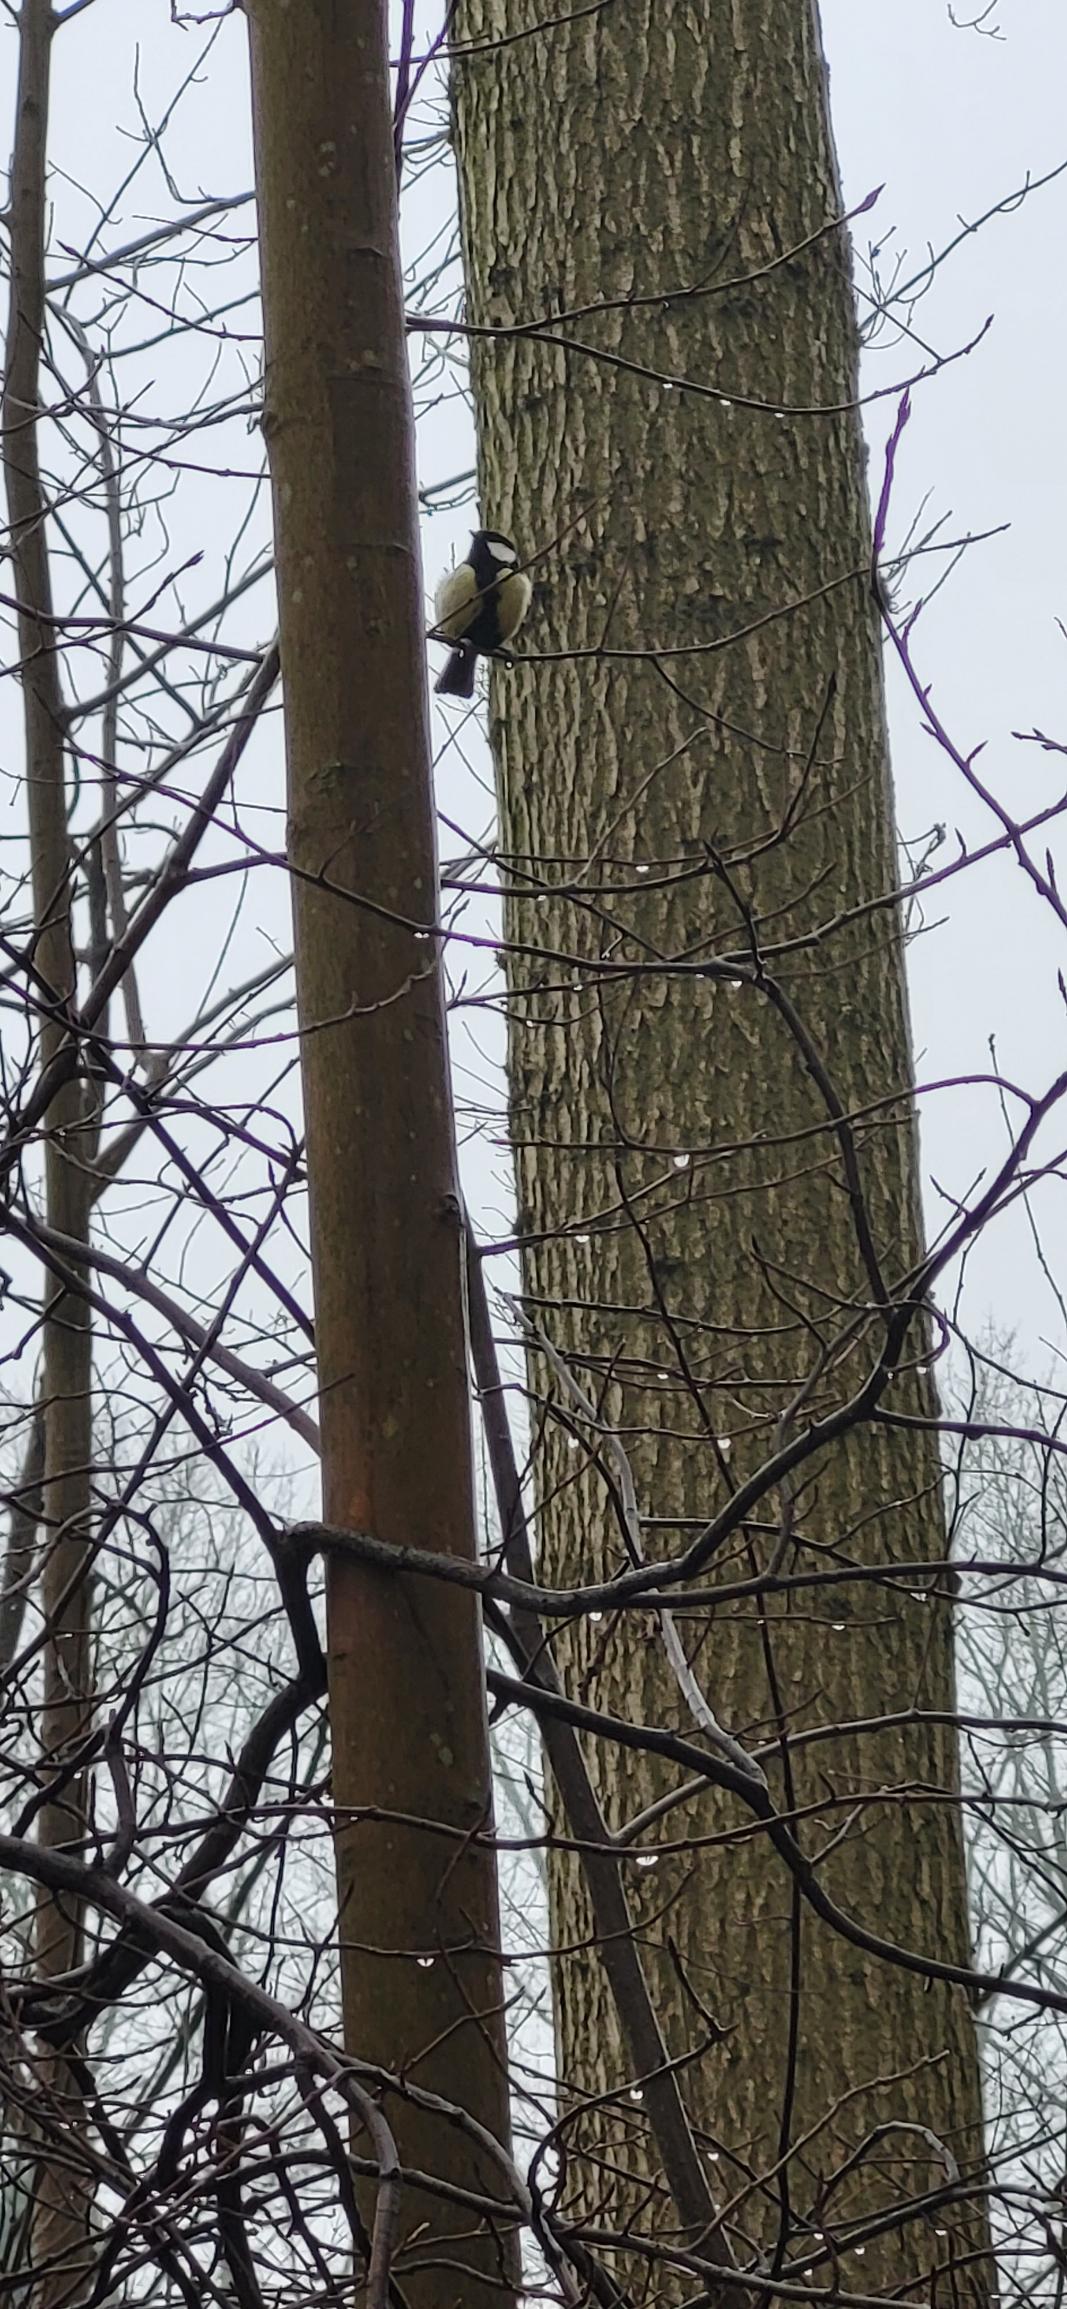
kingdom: Animalia
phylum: Chordata
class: Aves
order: Passeriformes
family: Paridae
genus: Parus
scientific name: Parus major
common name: Musvit
